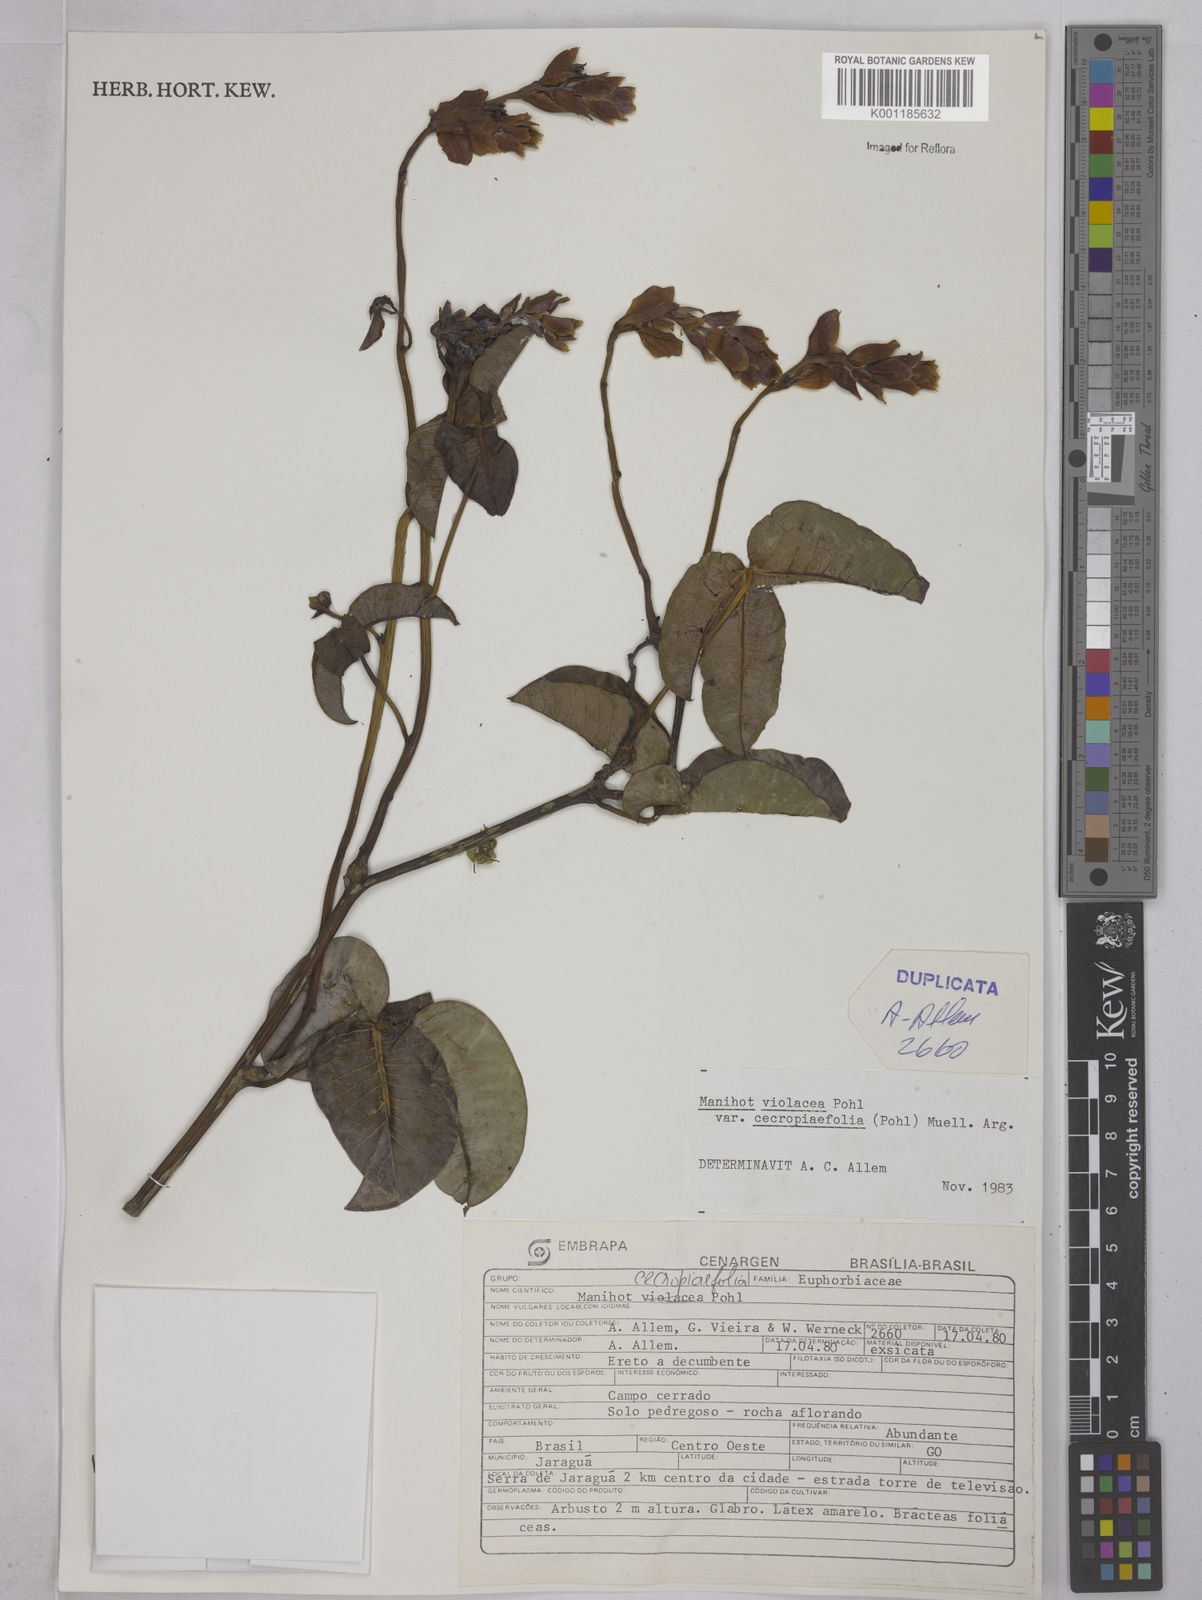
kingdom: Plantae
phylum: Tracheophyta
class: Magnoliopsida
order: Malpighiales
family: Euphorbiaceae
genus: Manihot
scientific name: Manihot cecropiifolia
